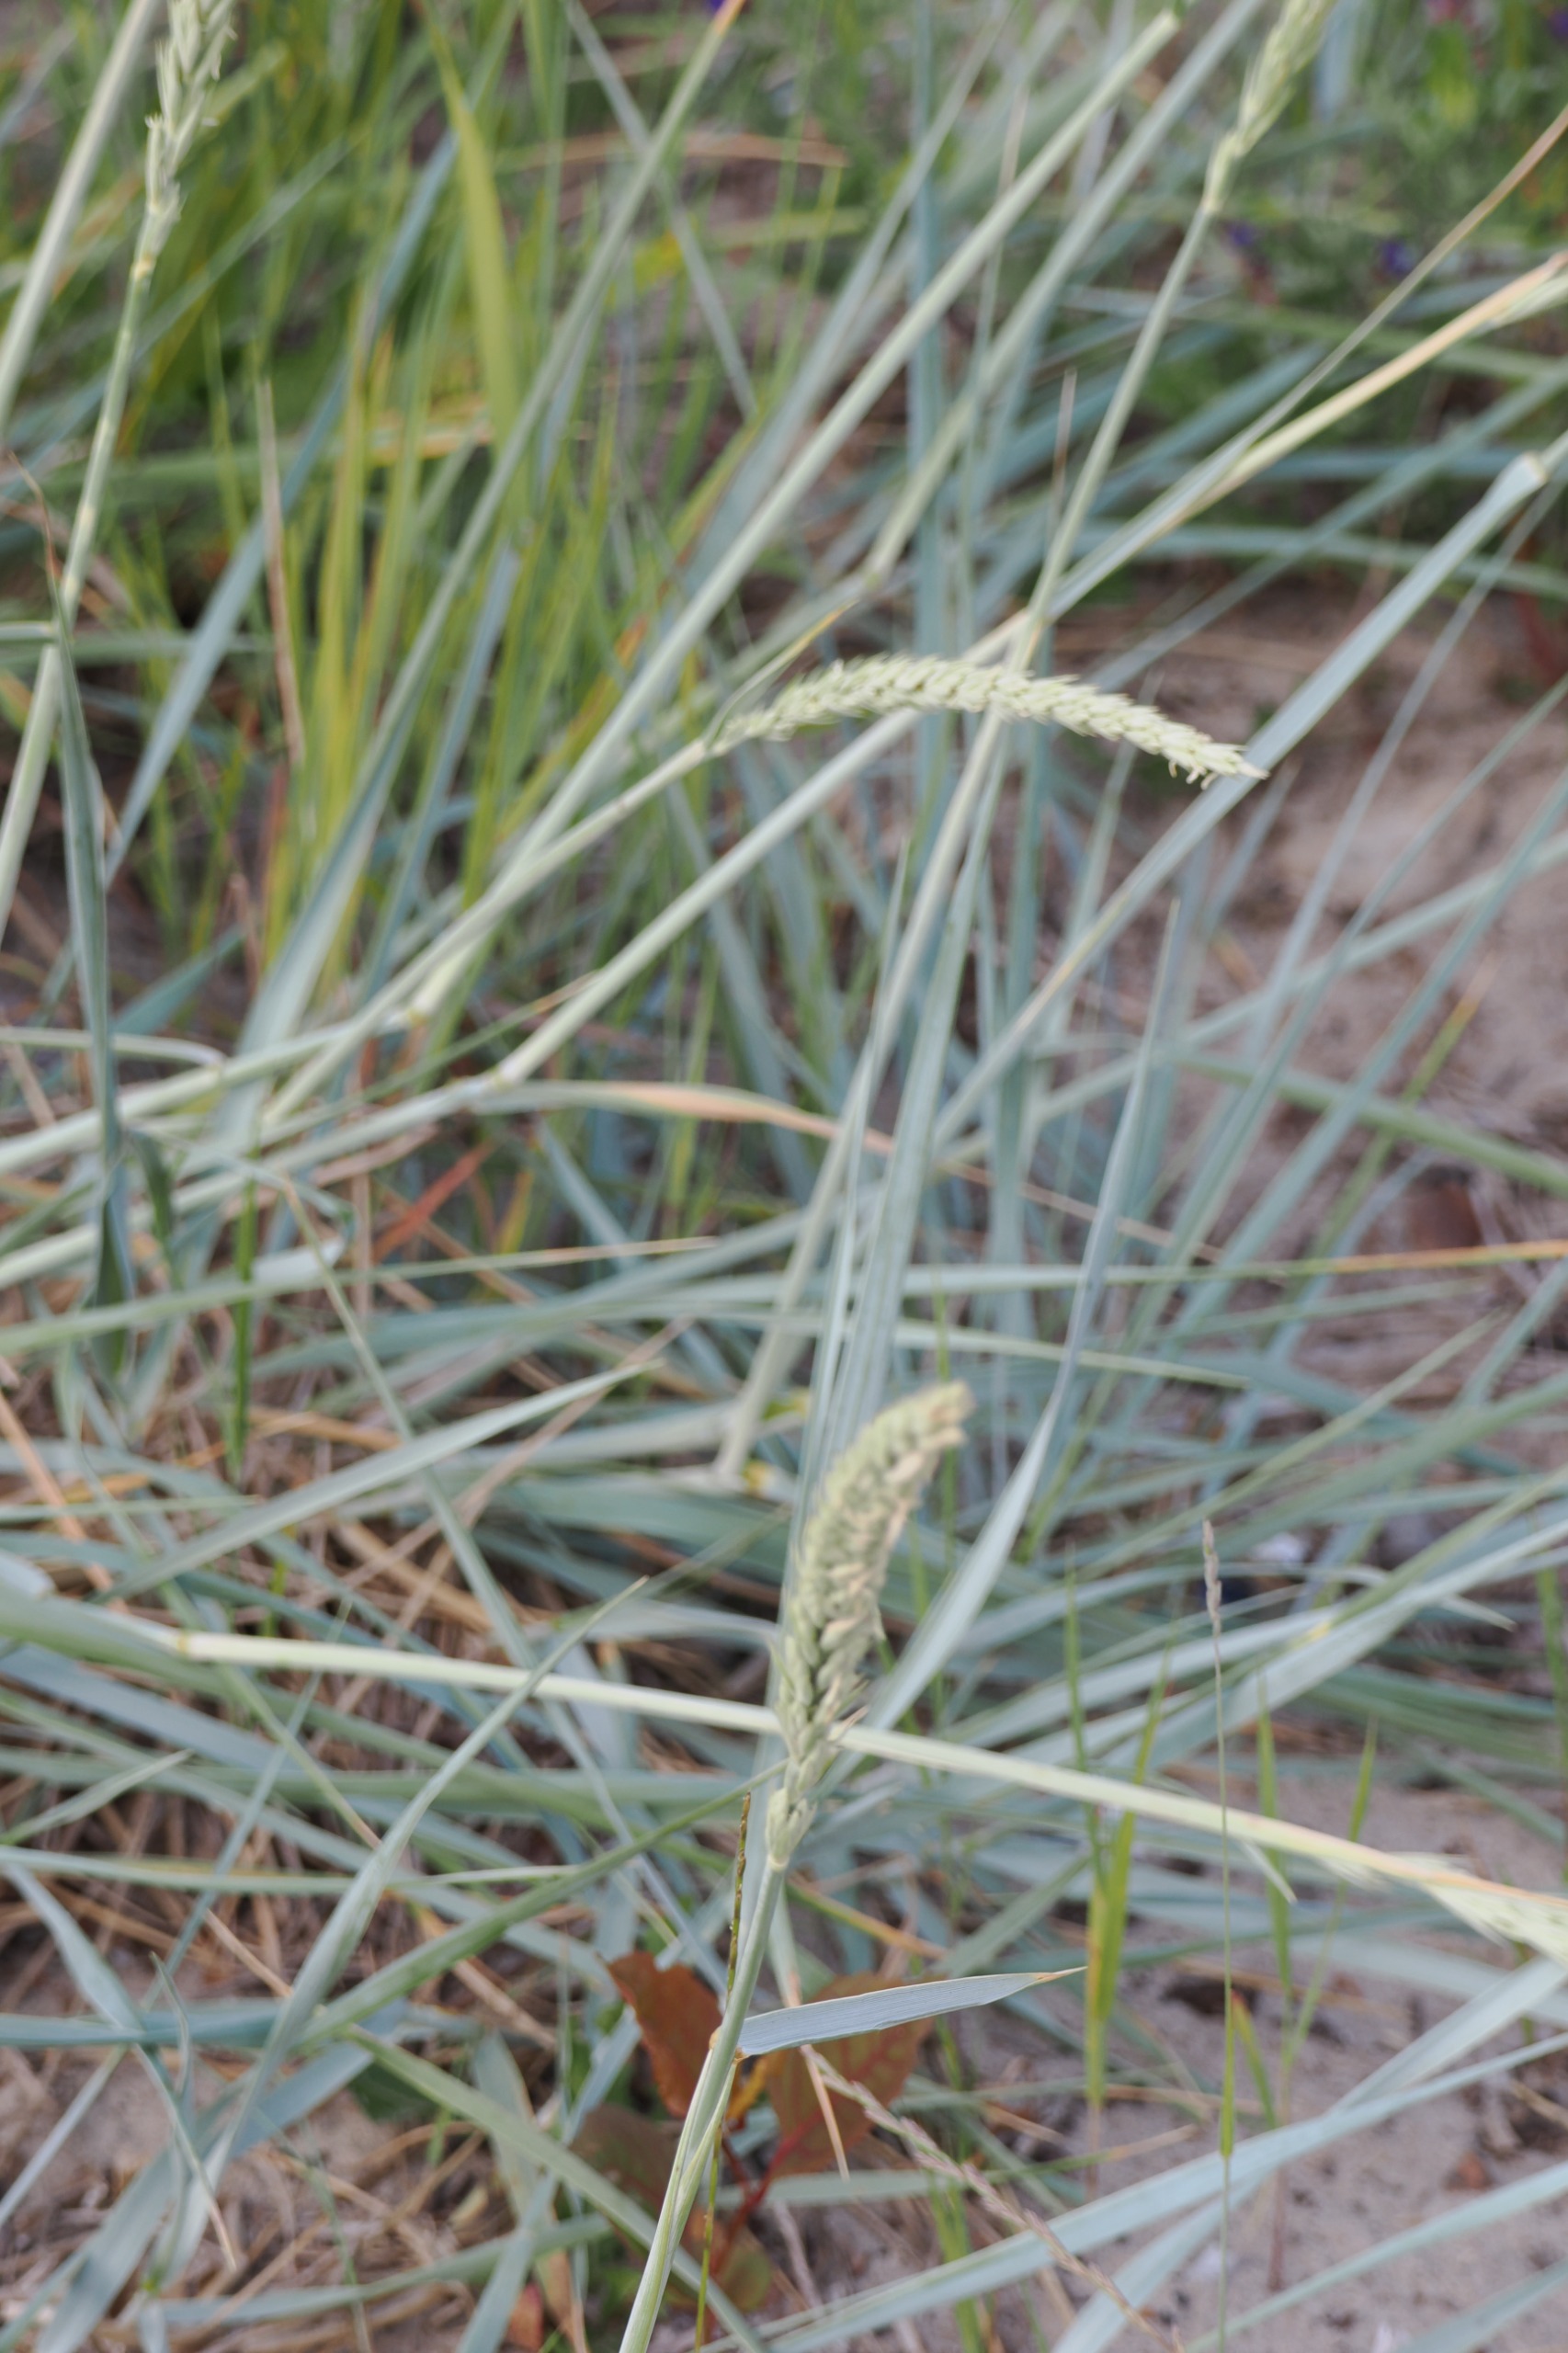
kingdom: Plantae
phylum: Tracheophyta
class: Liliopsida
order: Poales
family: Poaceae
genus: Leymus
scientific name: Leymus arenarius
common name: Marehalm
